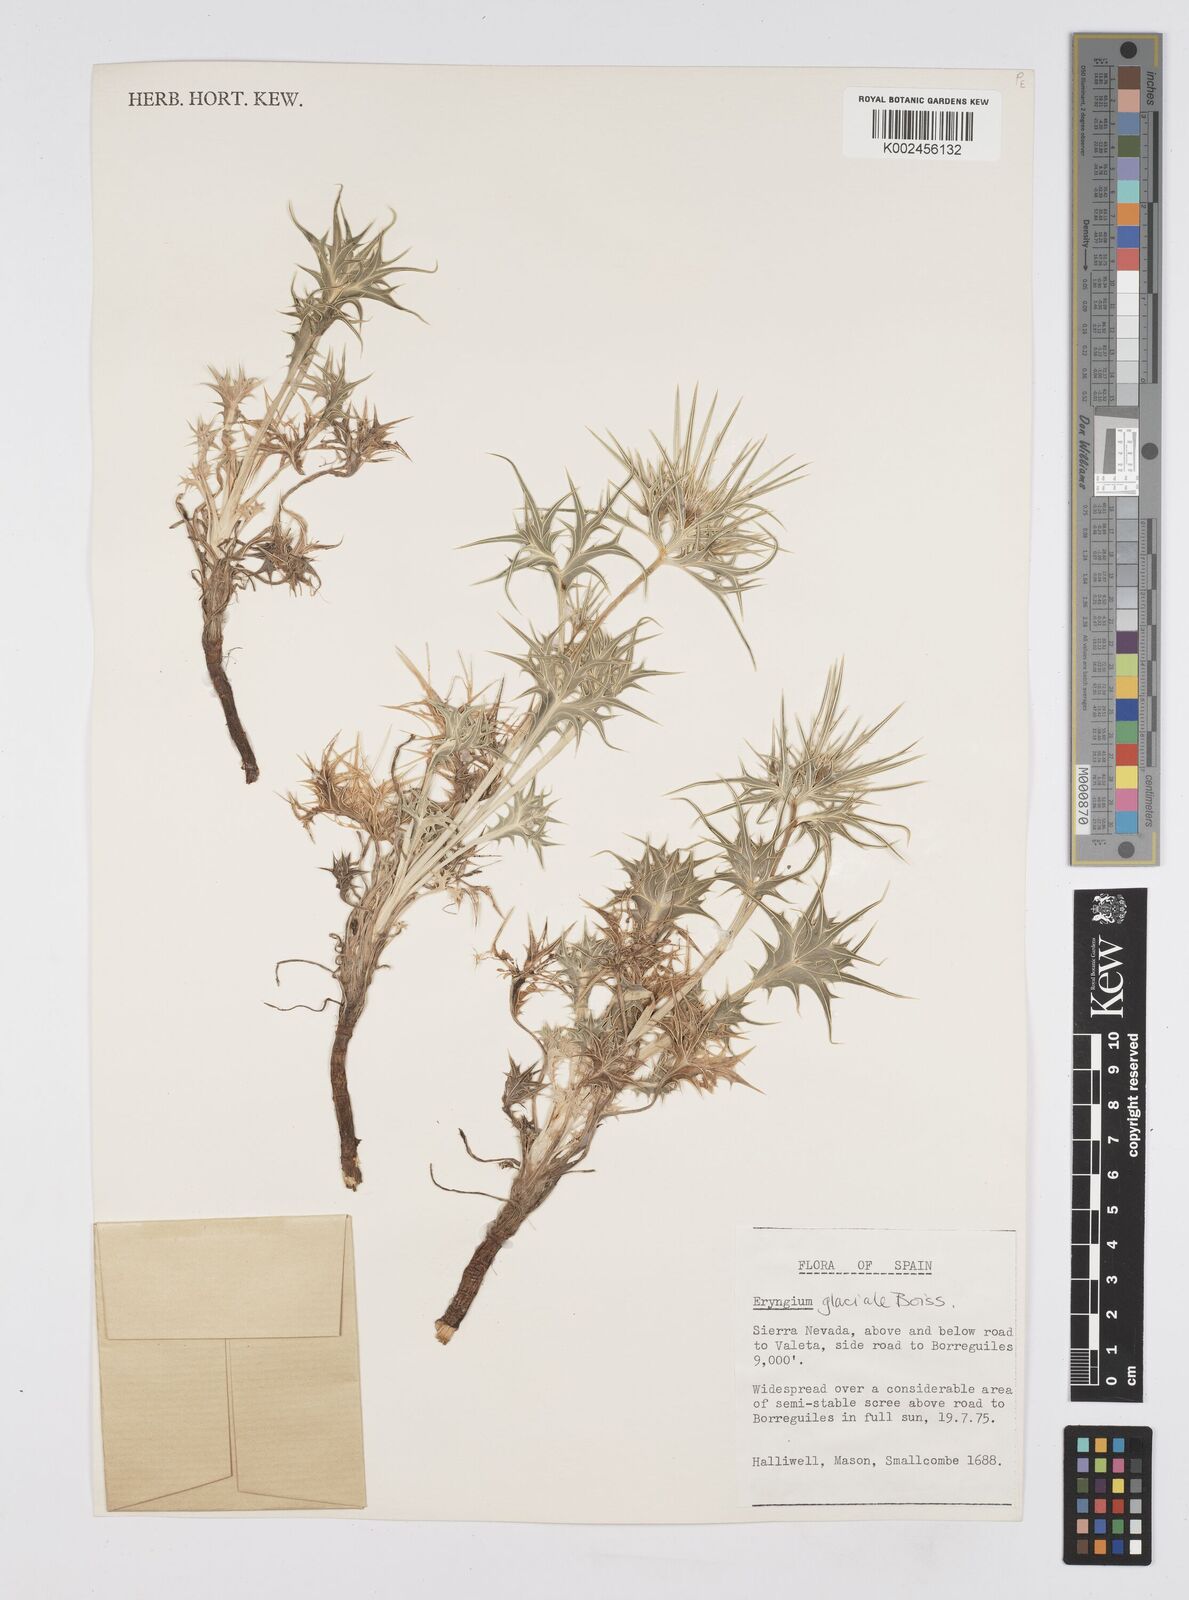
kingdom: Plantae
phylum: Tracheophyta
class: Magnoliopsida
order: Apiales
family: Apiaceae
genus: Eryngium
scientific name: Eryngium glaciale
